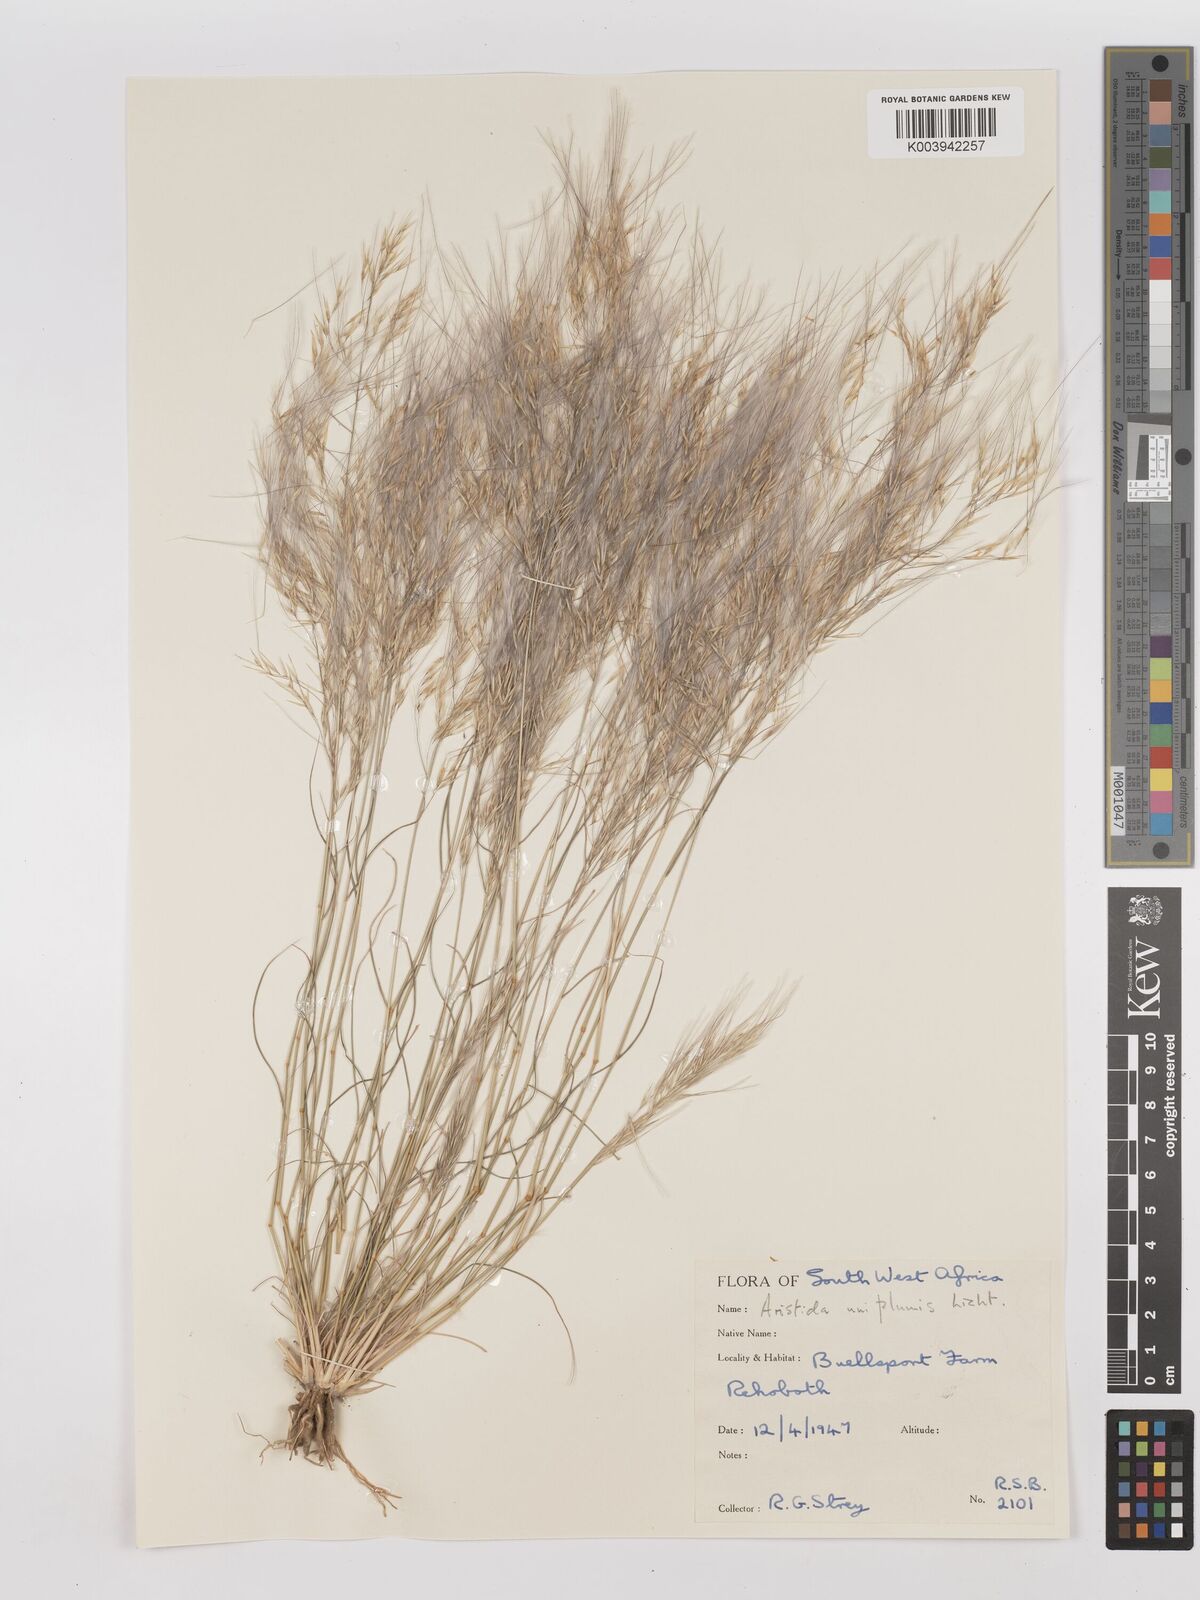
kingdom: Plantae
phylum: Tracheophyta
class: Liliopsida
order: Poales
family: Poaceae
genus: Stipagrostis
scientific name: Stipagrostis uniplumis
